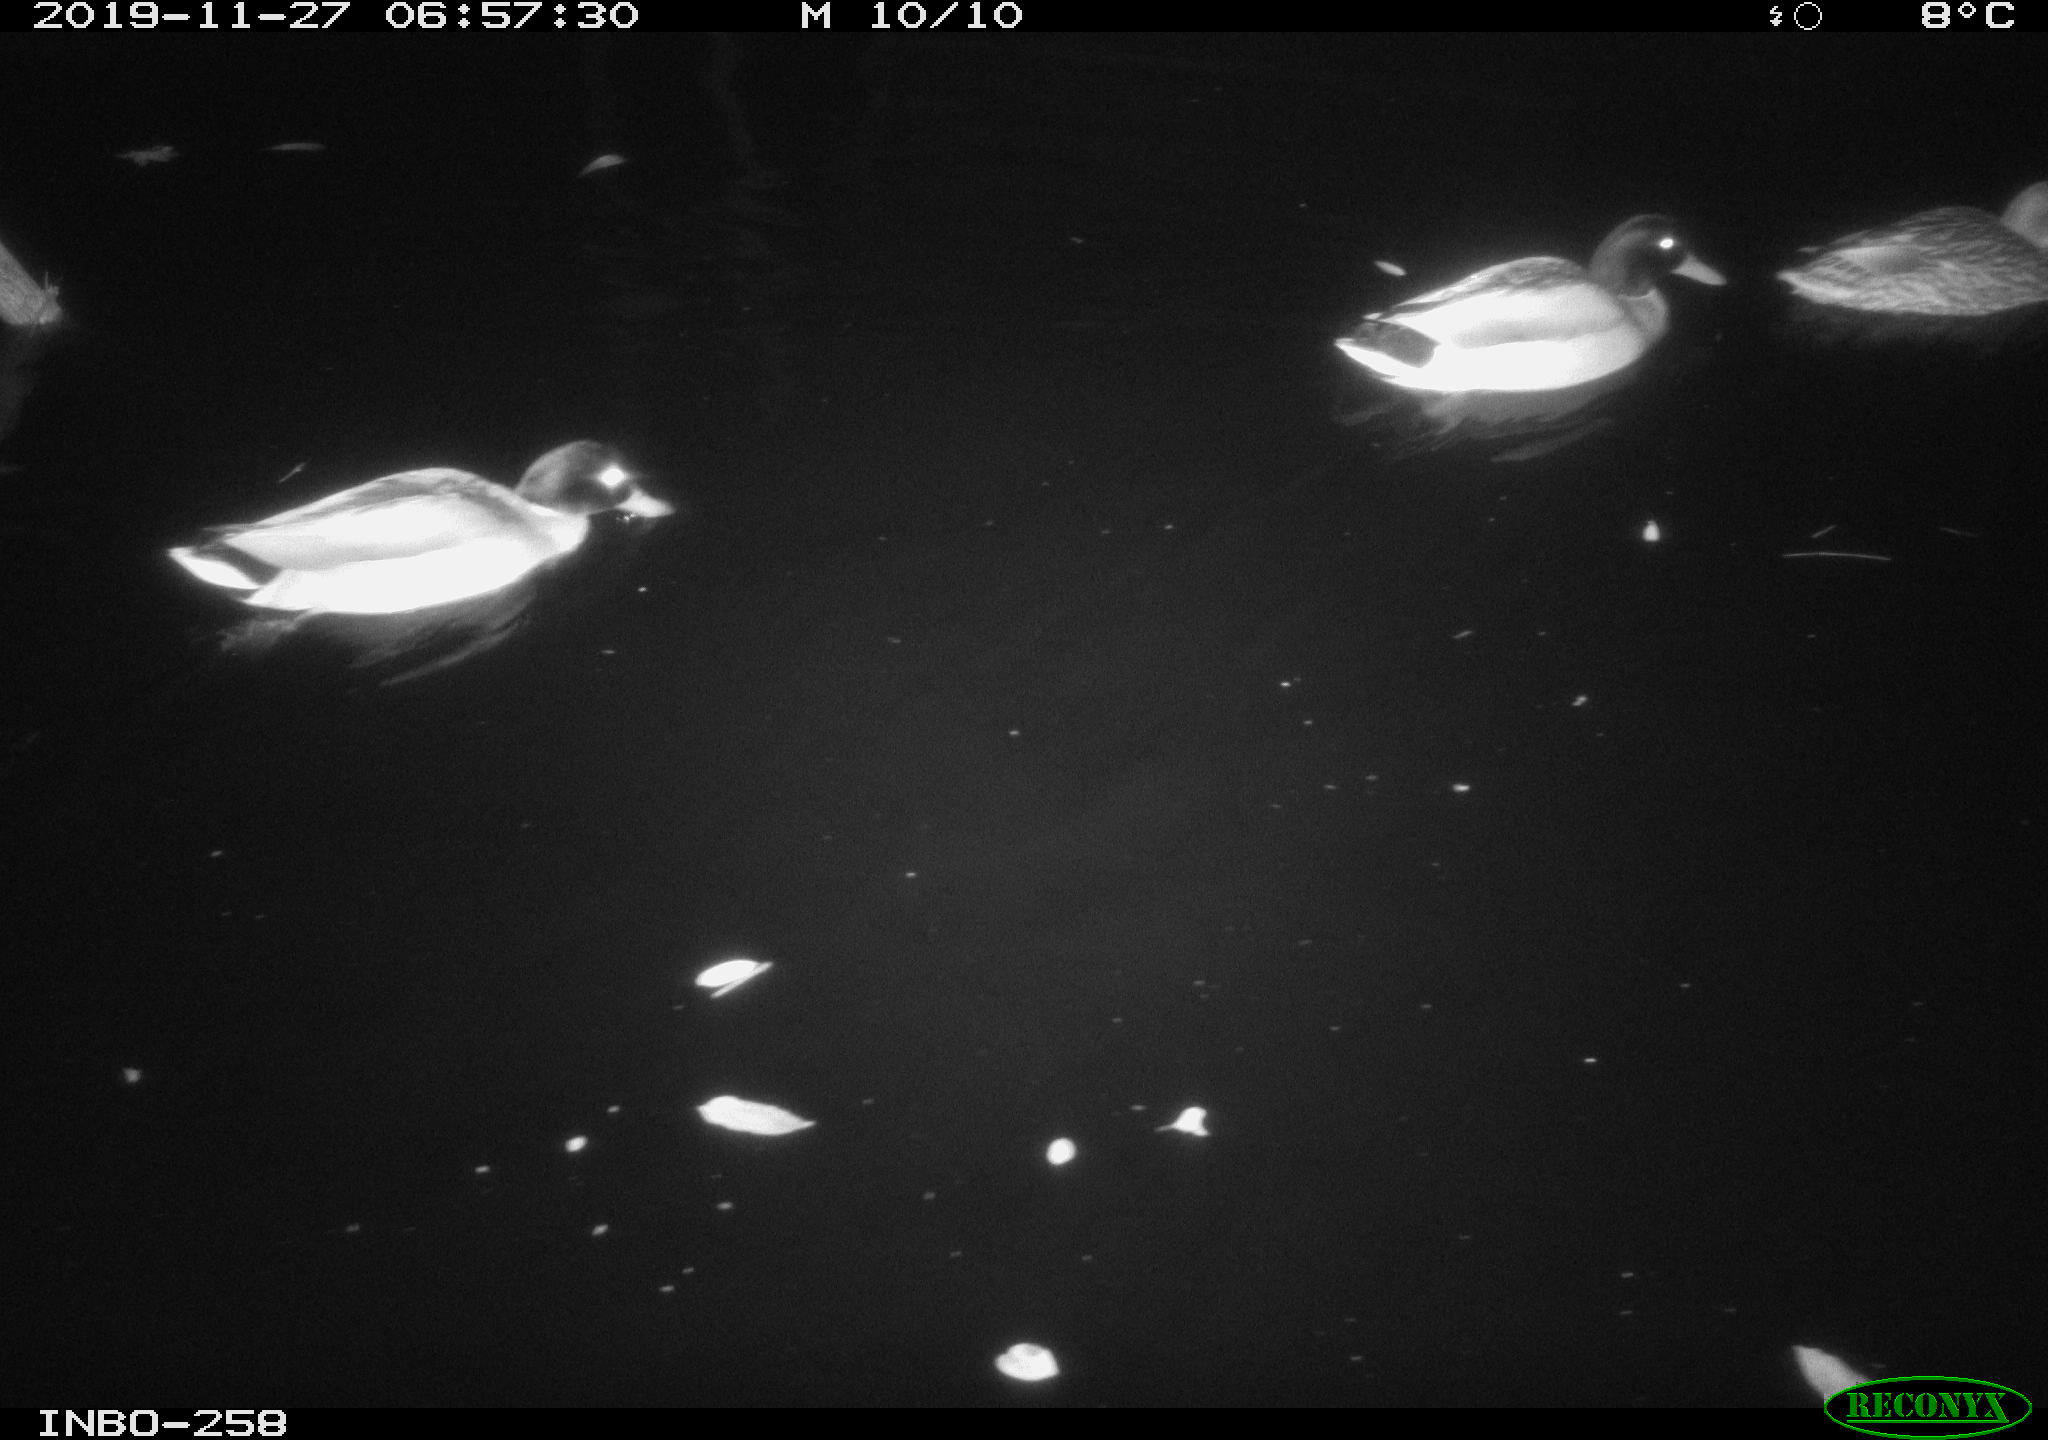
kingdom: Animalia
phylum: Chordata
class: Aves
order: Anseriformes
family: Anatidae
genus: Anas
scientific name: Anas platyrhynchos
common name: Mallard
